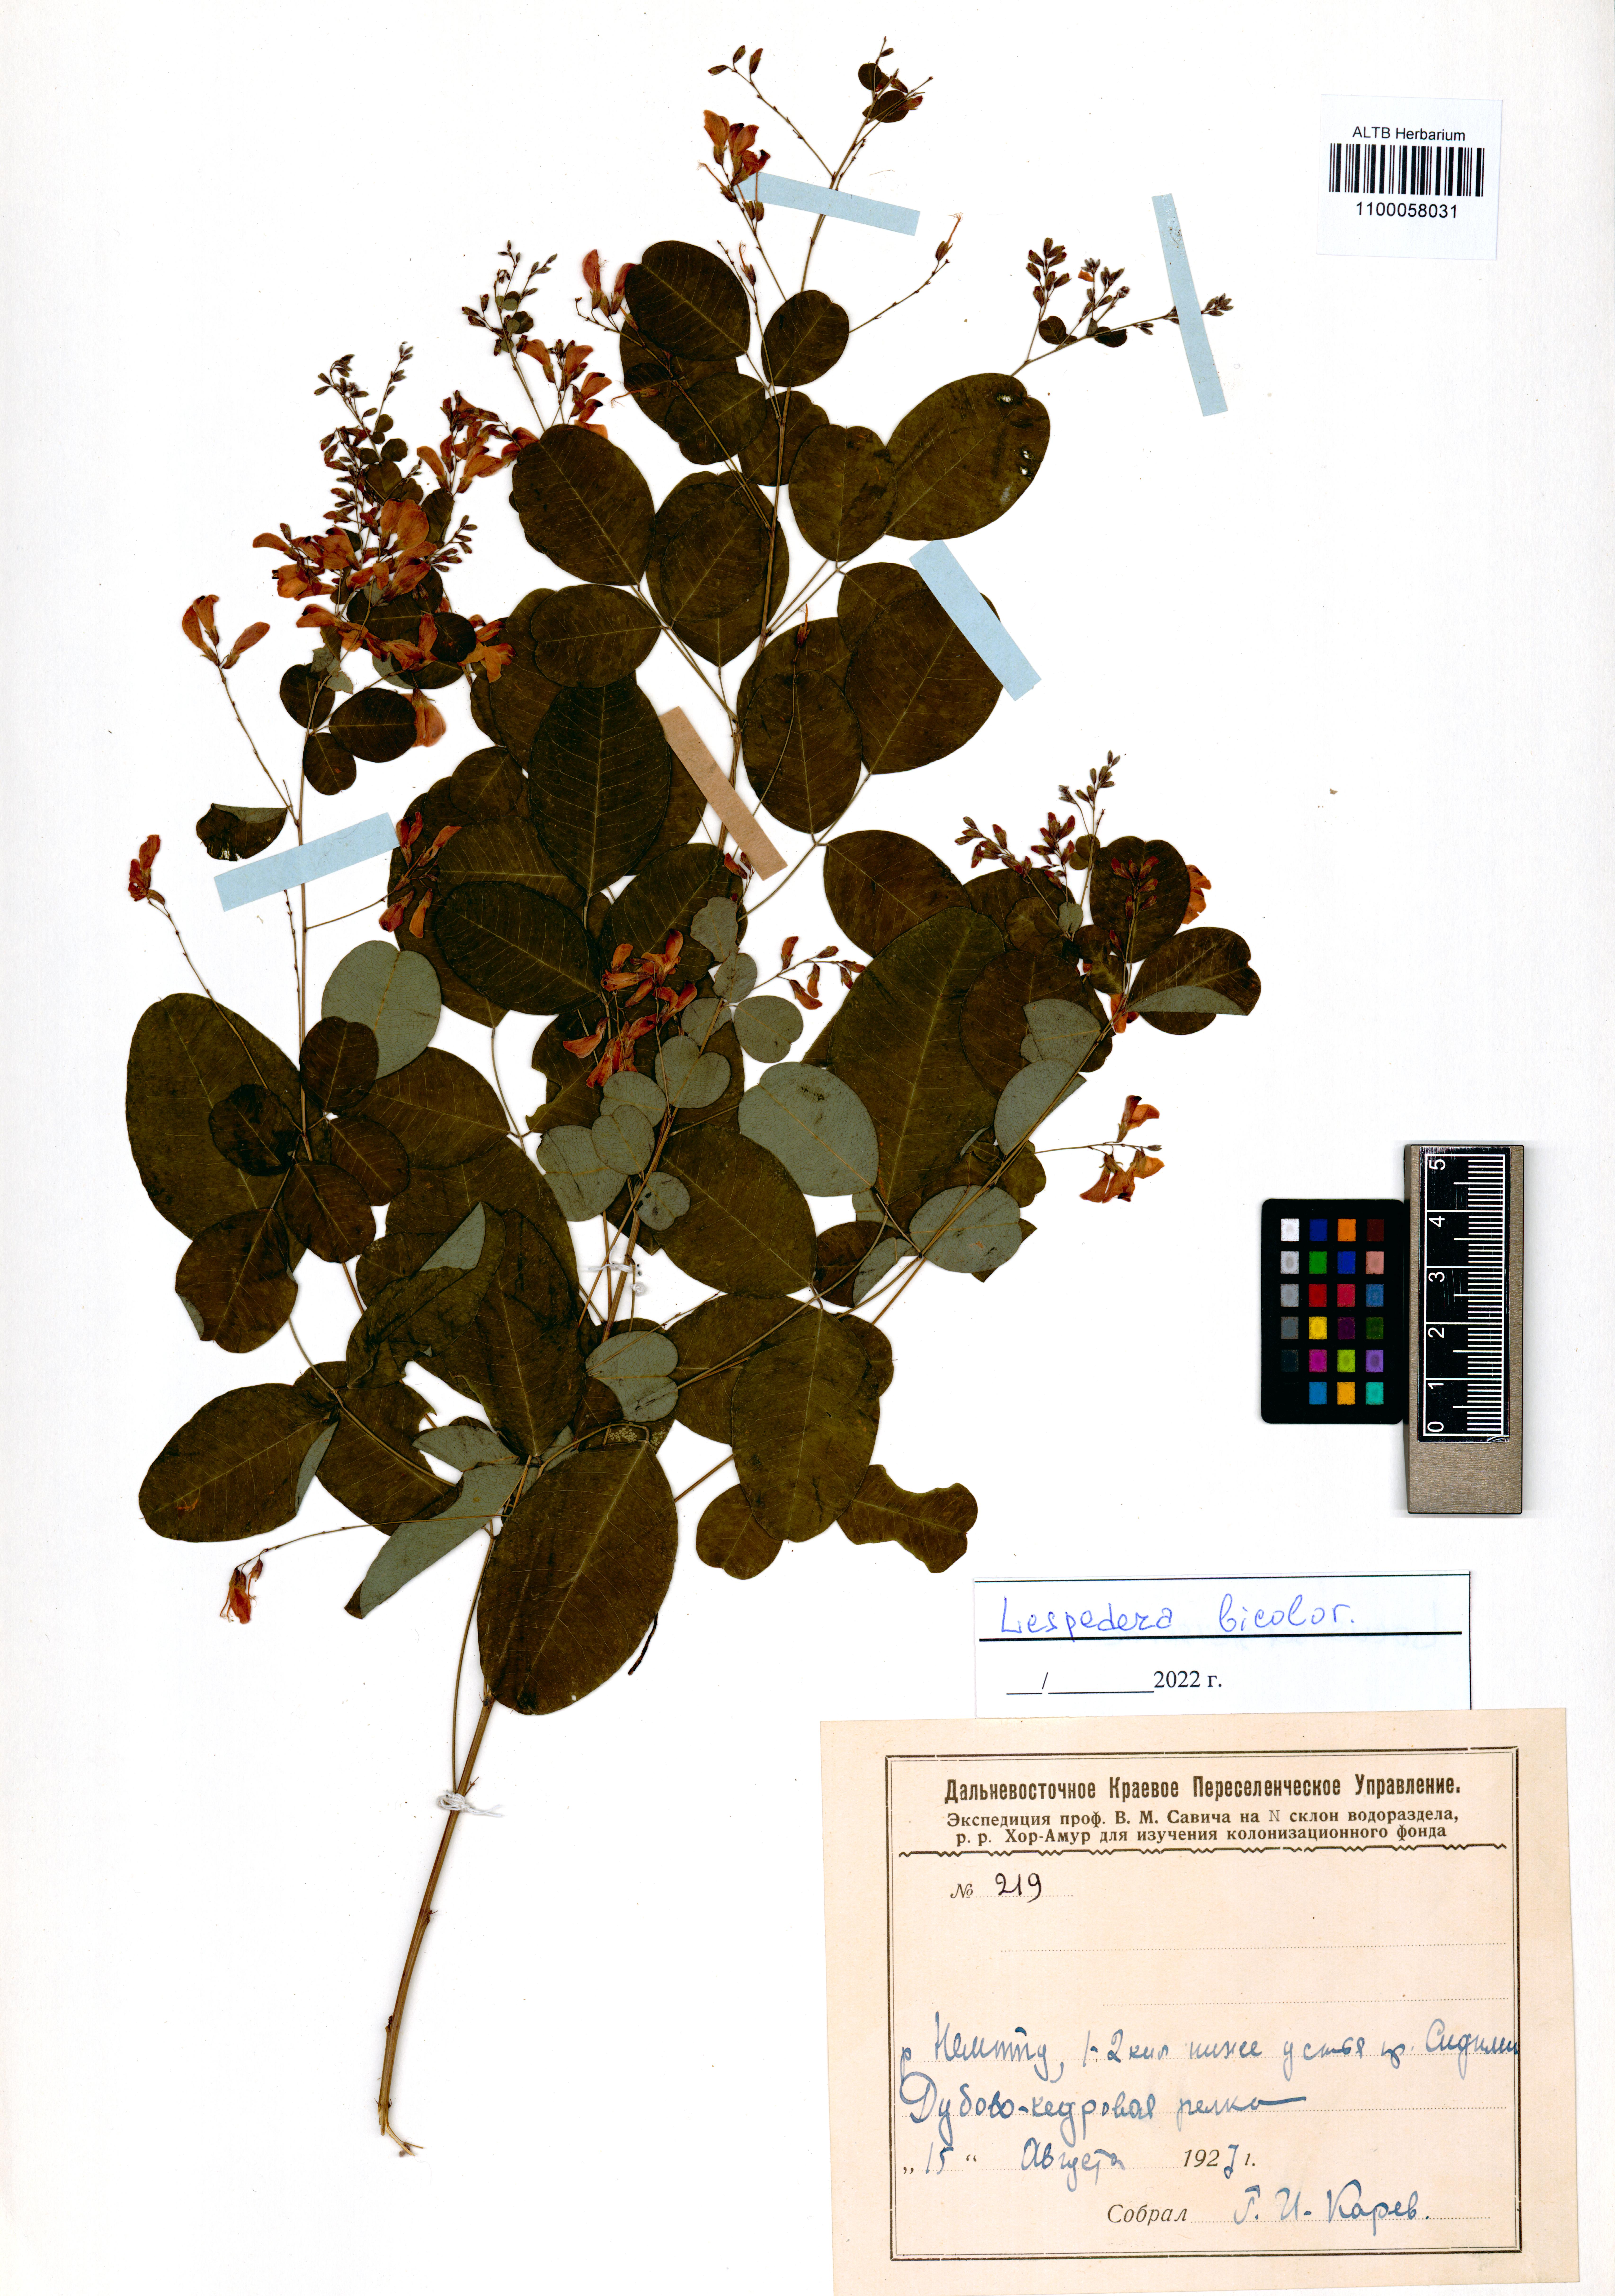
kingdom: Plantae
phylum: Tracheophyta
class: Magnoliopsida
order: Fabales
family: Fabaceae
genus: Lespedeza
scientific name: Lespedeza bicolor
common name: Shrub lespedeza
